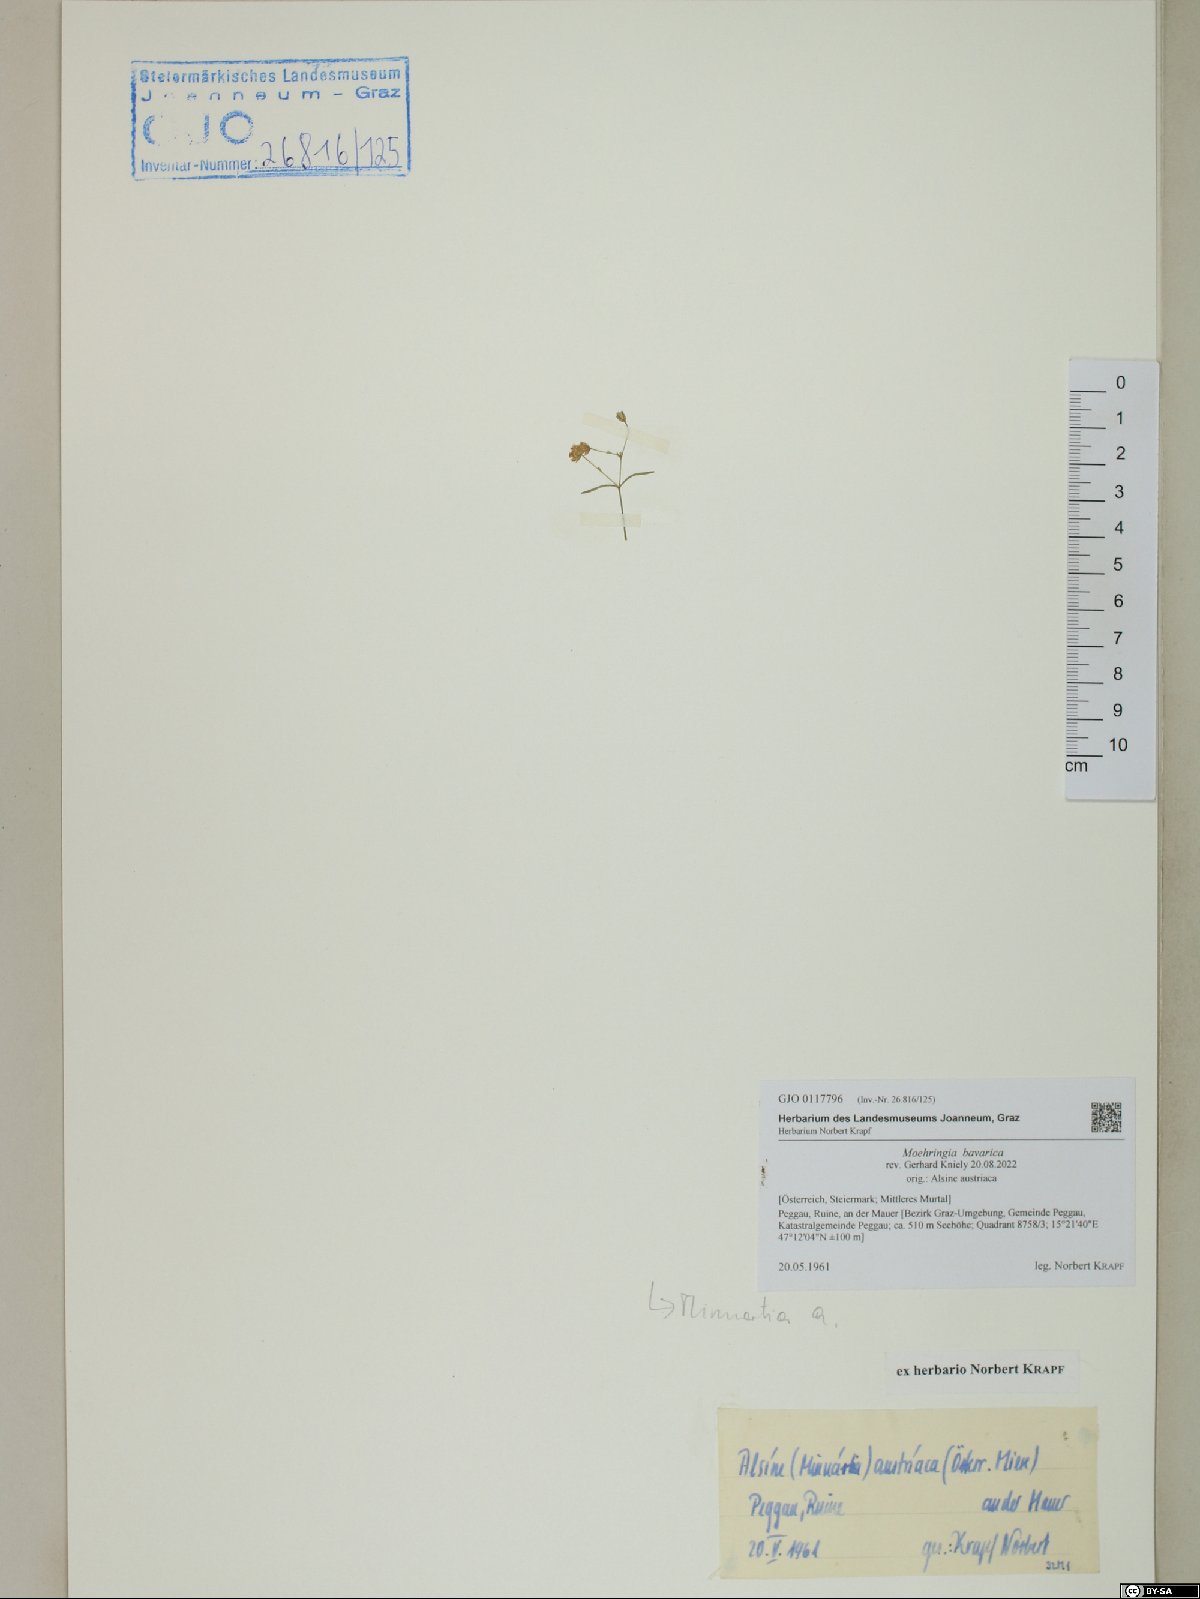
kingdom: Plantae
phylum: Tracheophyta
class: Magnoliopsida
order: Caryophyllales
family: Caryophyllaceae
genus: Moehringia
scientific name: Moehringia bavarica
